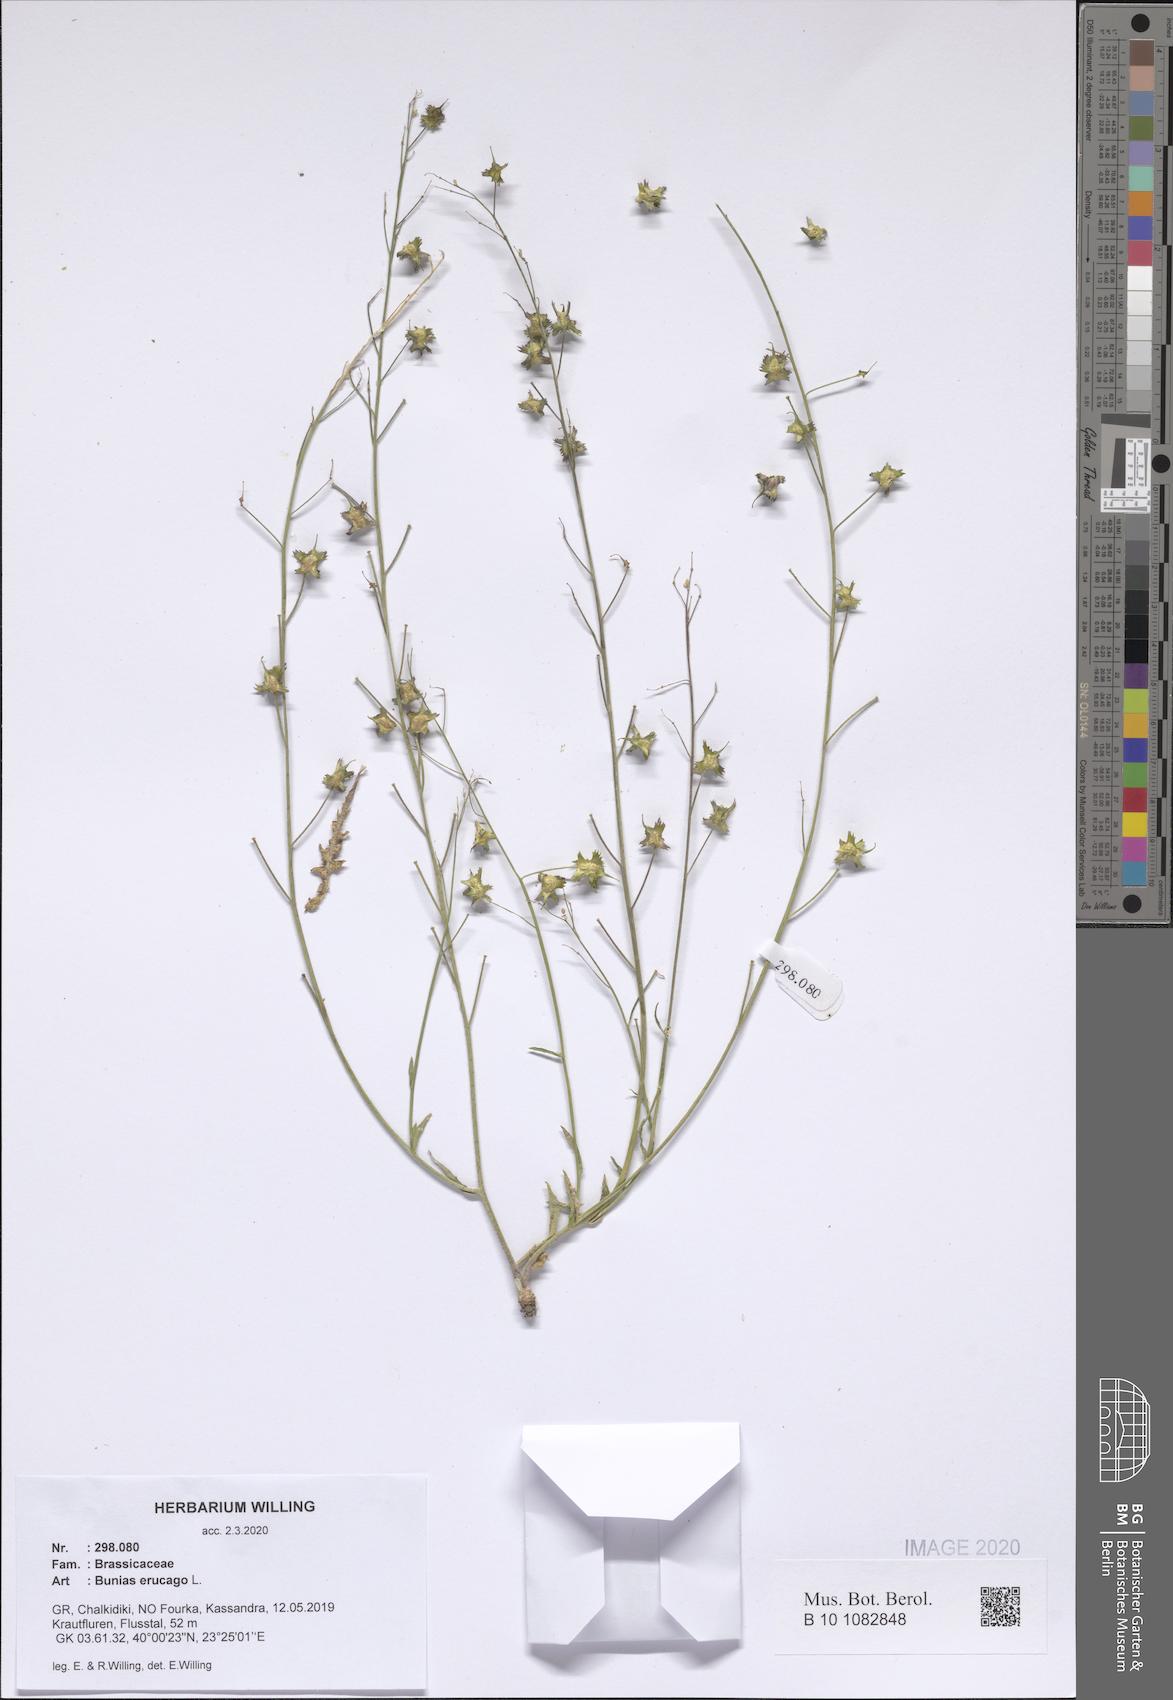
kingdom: Plantae
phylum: Tracheophyta
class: Magnoliopsida
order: Brassicales
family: Brassicaceae
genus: Bunias
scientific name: Bunias erucago
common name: Southern warty-cabbage
